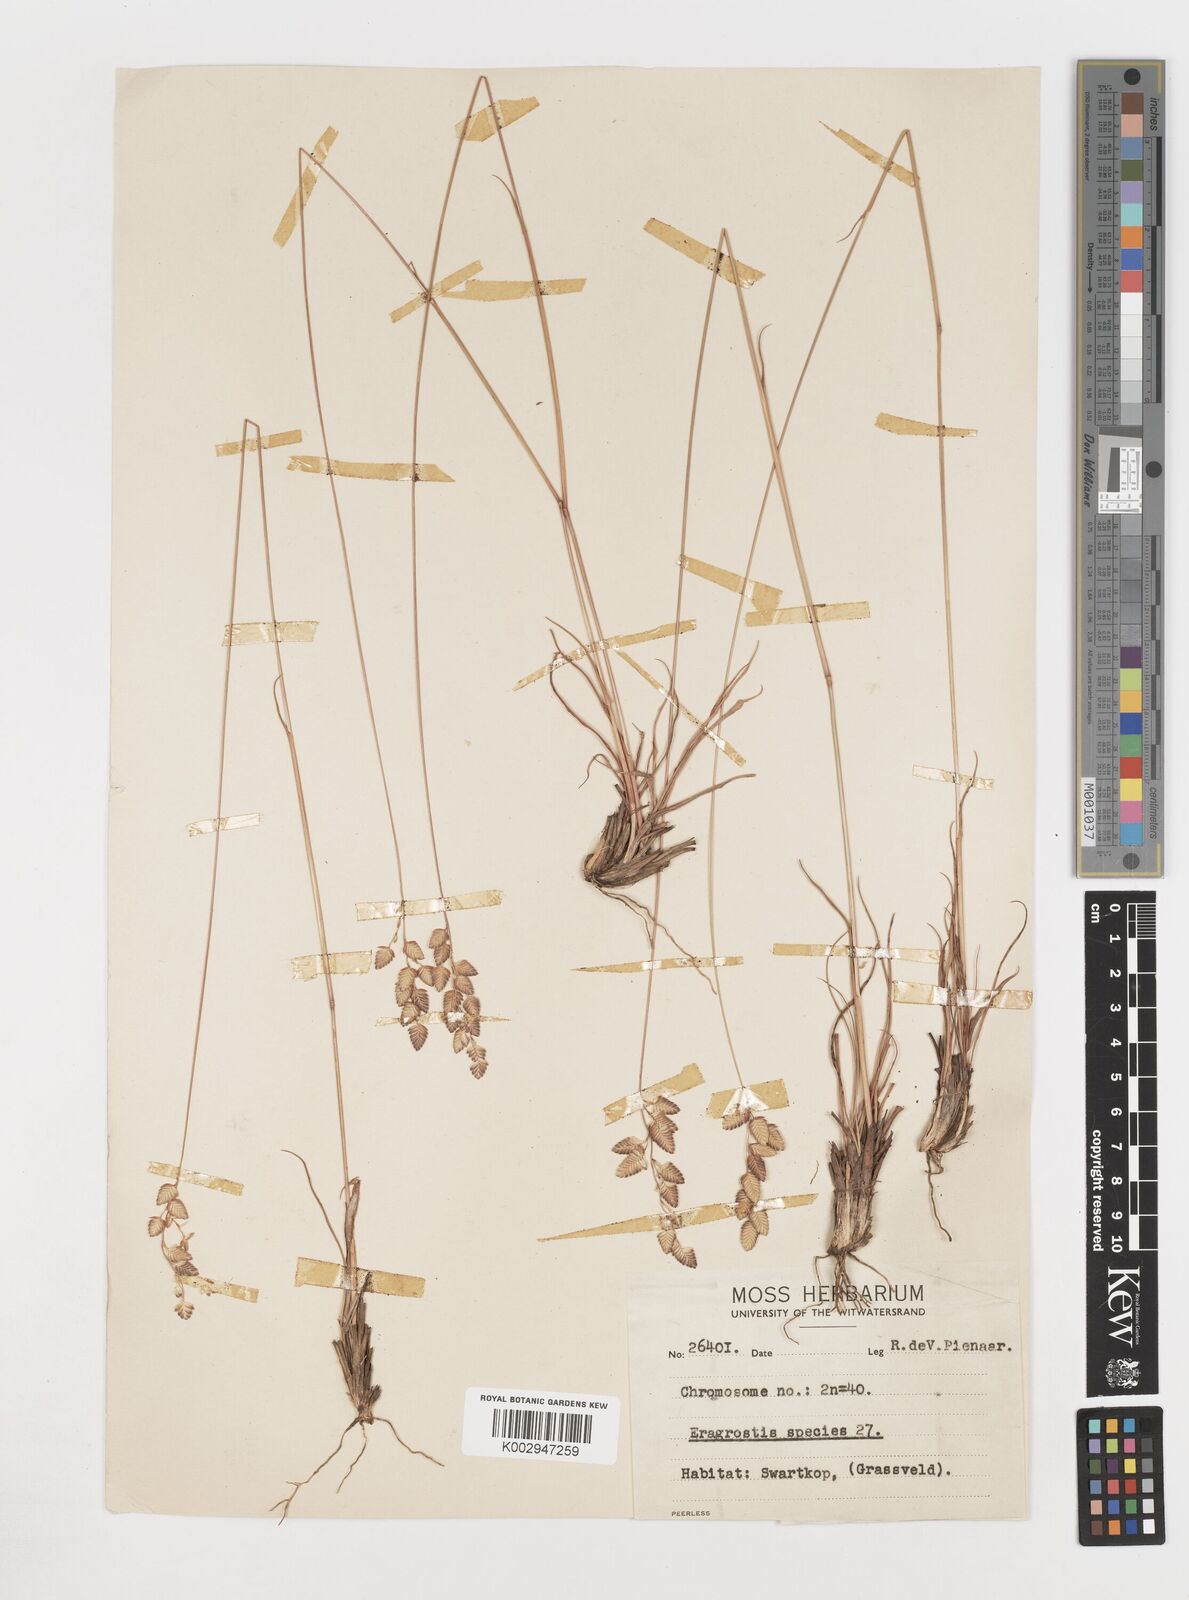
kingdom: Plantae
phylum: Tracheophyta
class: Liliopsida
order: Poales
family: Poaceae
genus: Eragrostis
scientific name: Eragrostis
